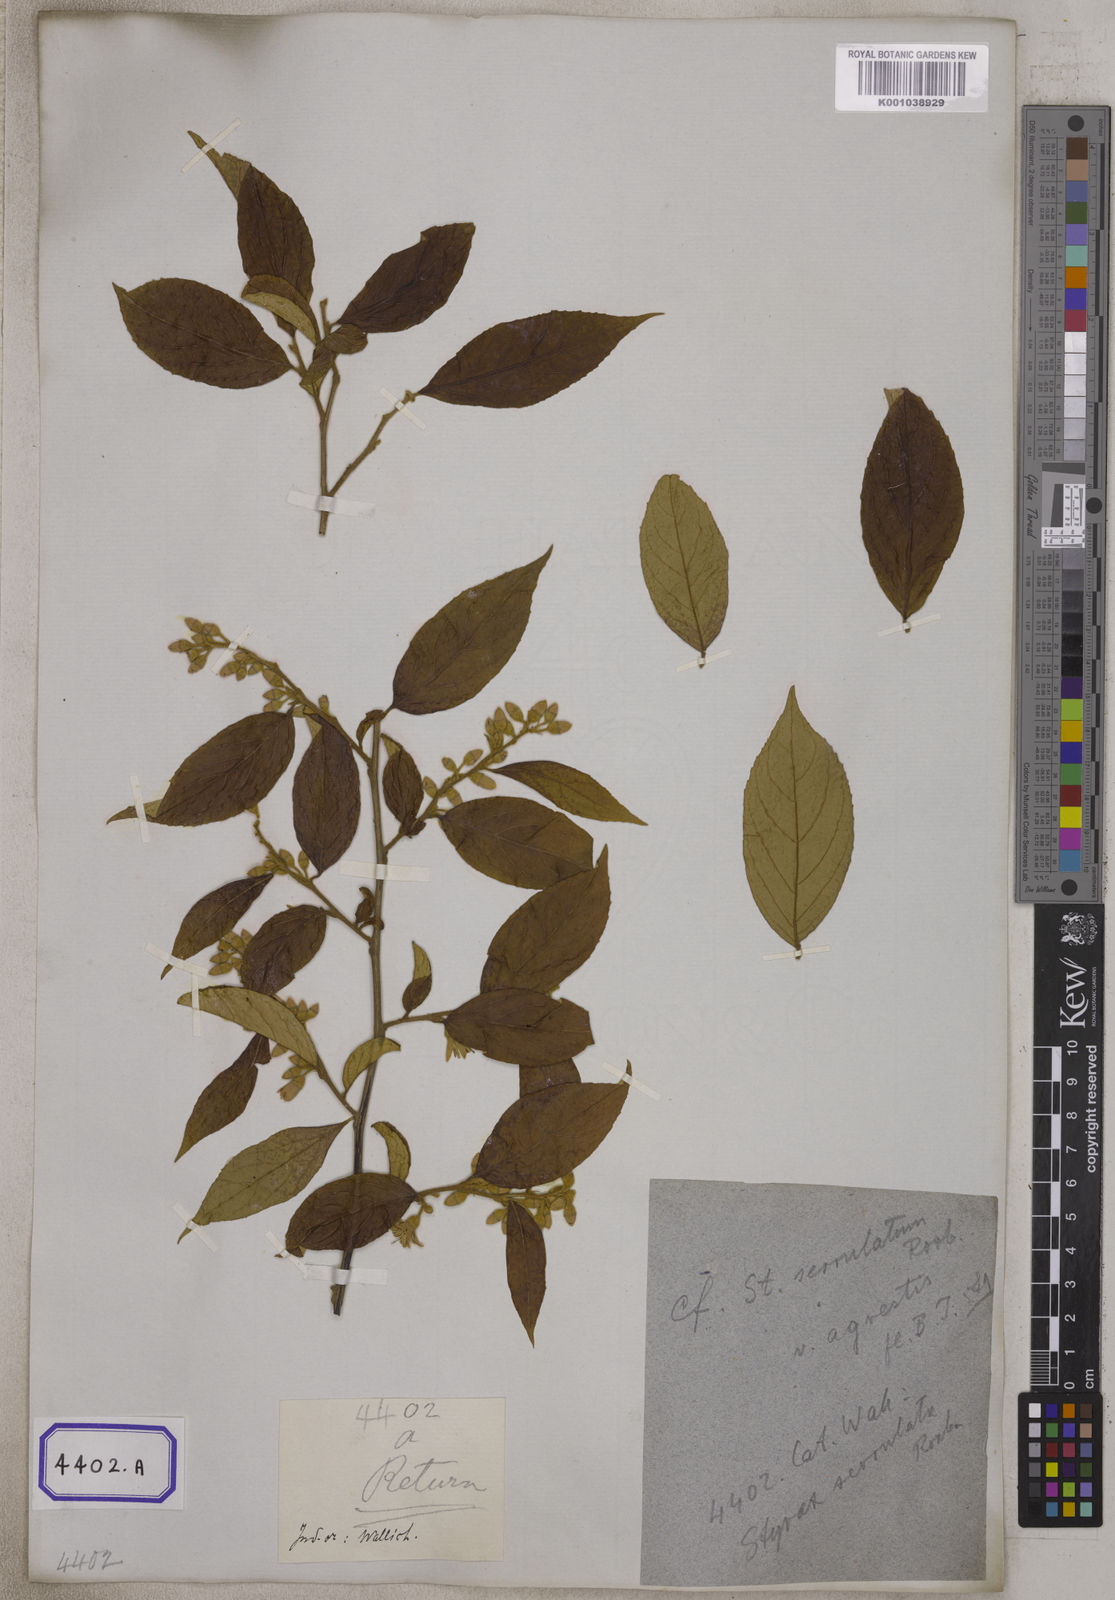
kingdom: Plantae
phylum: Tracheophyta
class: Magnoliopsida
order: Ericales
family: Styracaceae
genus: Styrax
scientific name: Styrax serrulatus
